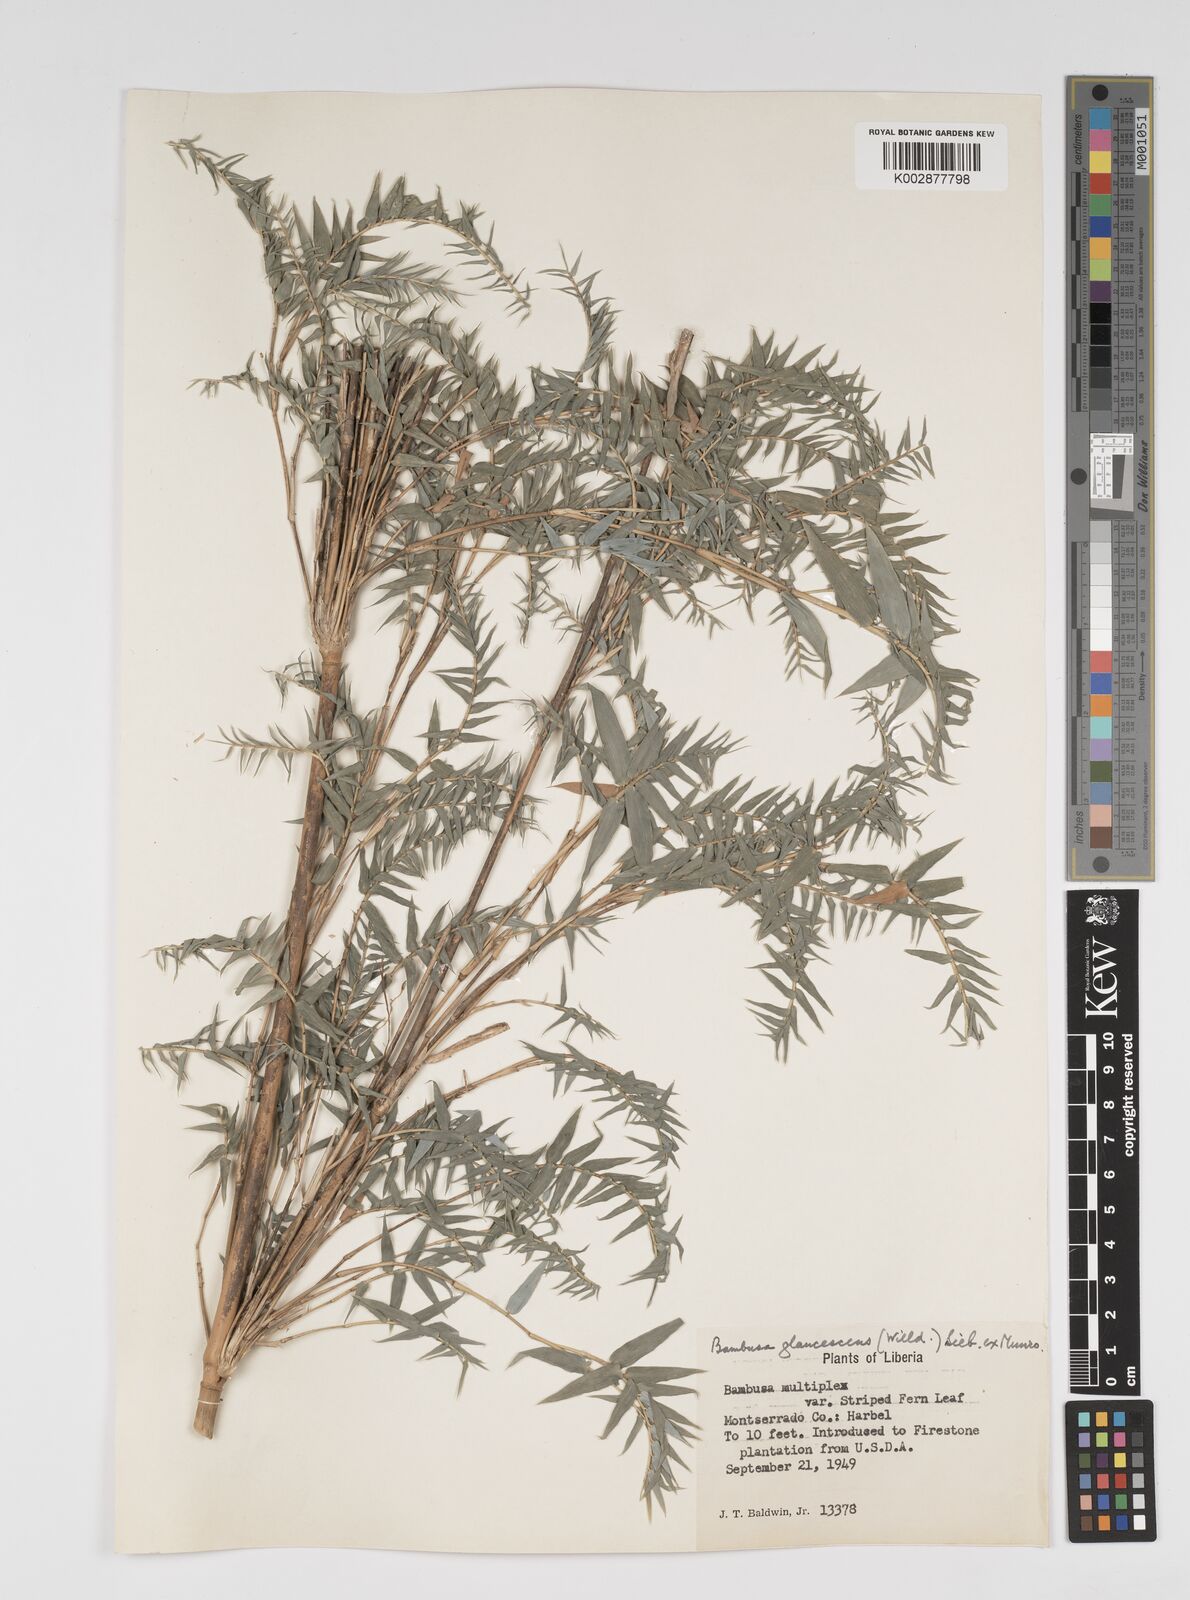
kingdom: Plantae
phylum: Tracheophyta
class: Liliopsida
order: Poales
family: Poaceae
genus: Bambusa
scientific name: Bambusa multiplex
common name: Hedge bamboo
